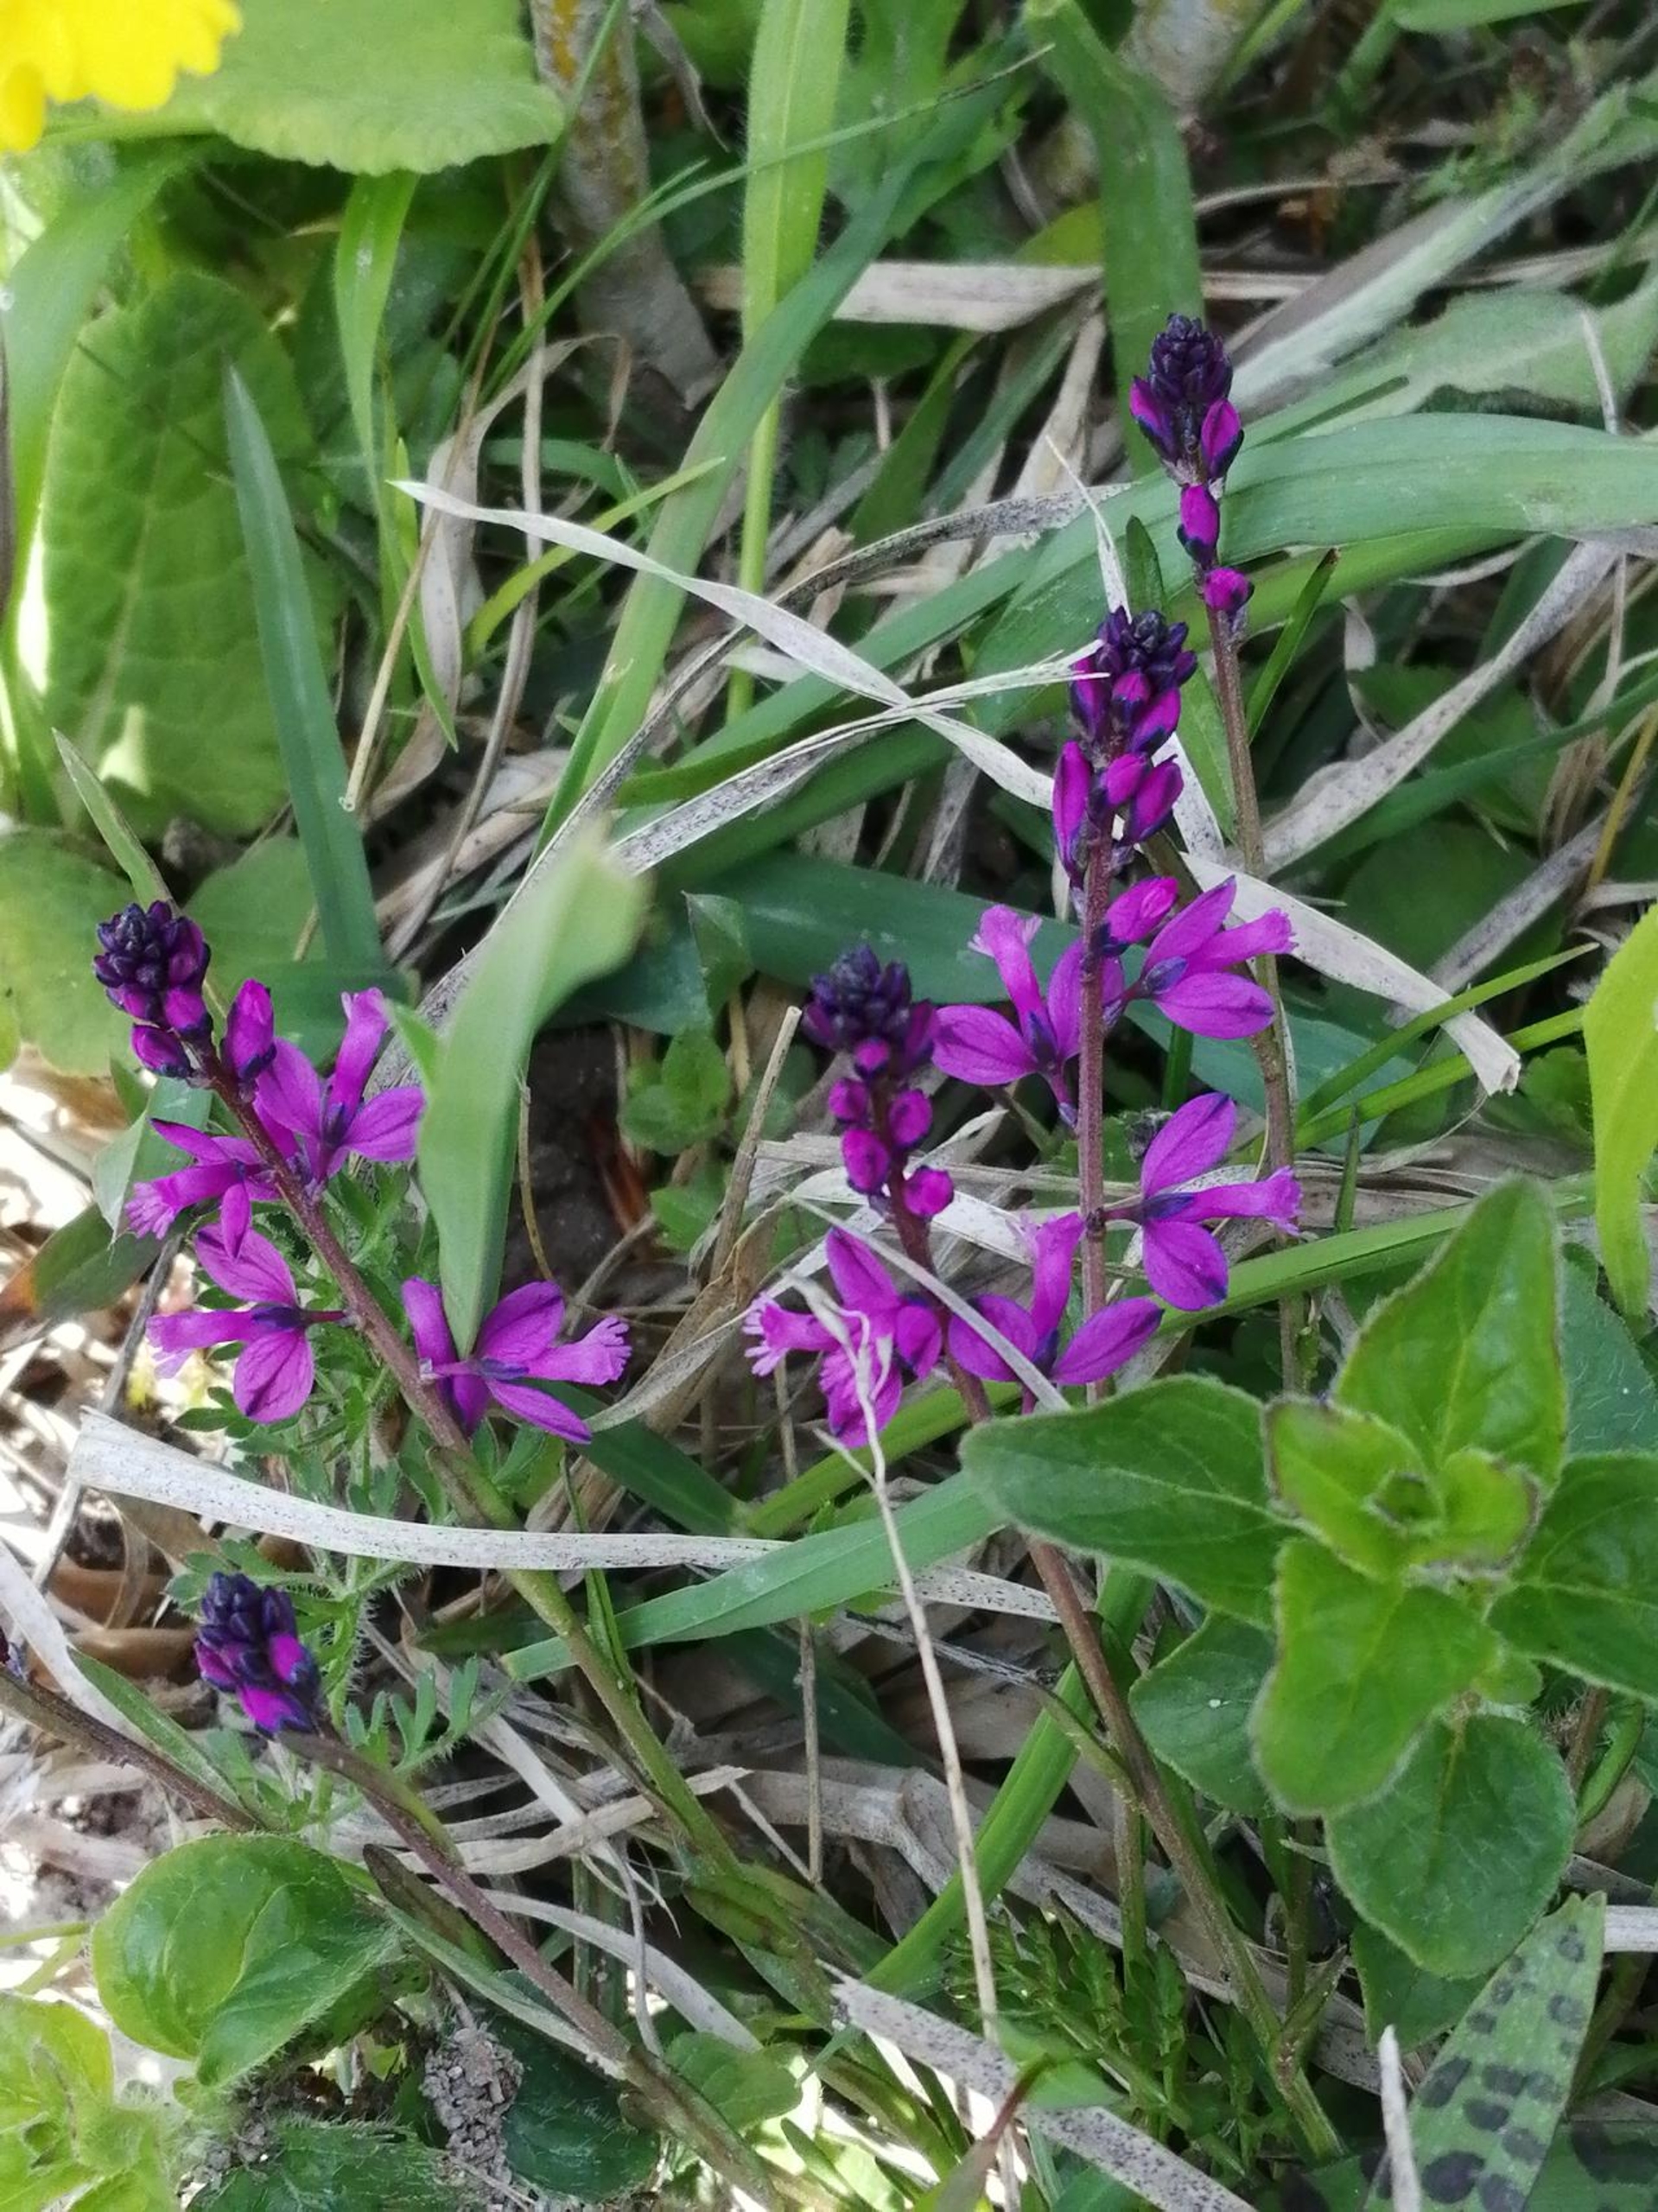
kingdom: Plantae
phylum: Tracheophyta
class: Magnoliopsida
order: Fabales
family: Polygalaceae
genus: Polygala
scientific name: Polygala vulgaris
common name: Almindelig mælkeurt
